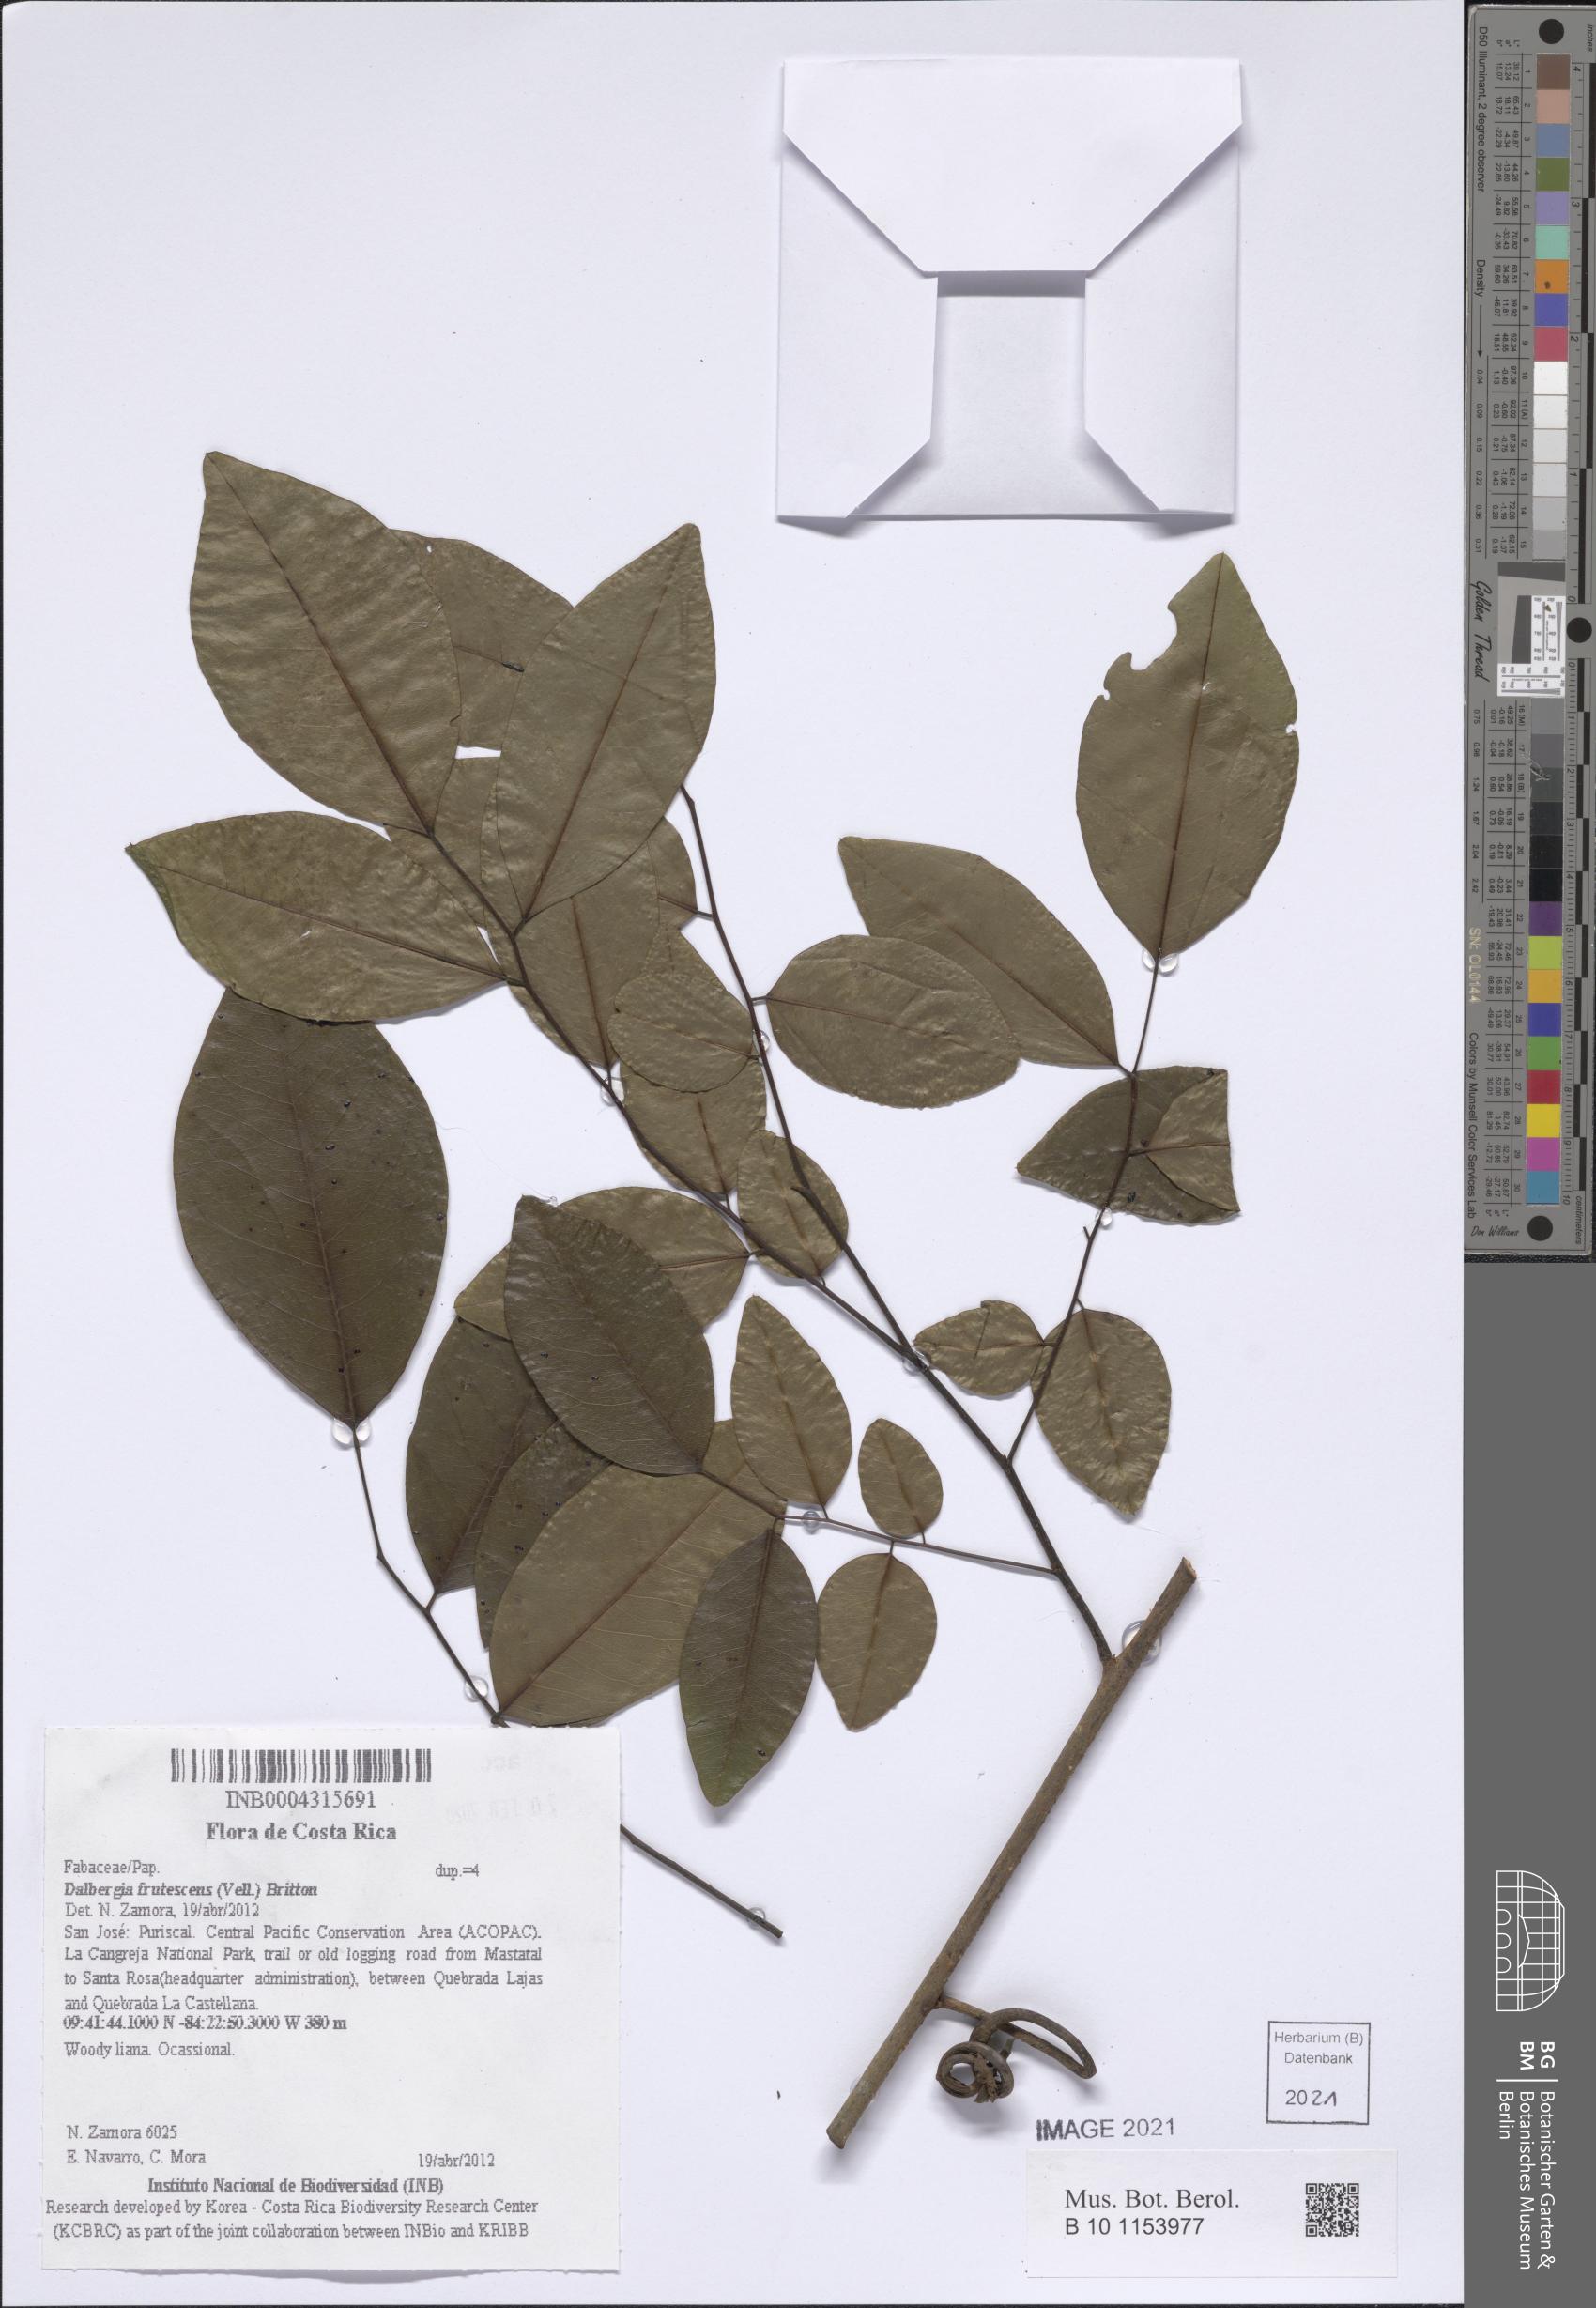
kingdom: Plantae
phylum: Tracheophyta
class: Magnoliopsida
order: Fabales
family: Fabaceae
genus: Dalbergia
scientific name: Dalbergia frutescens
